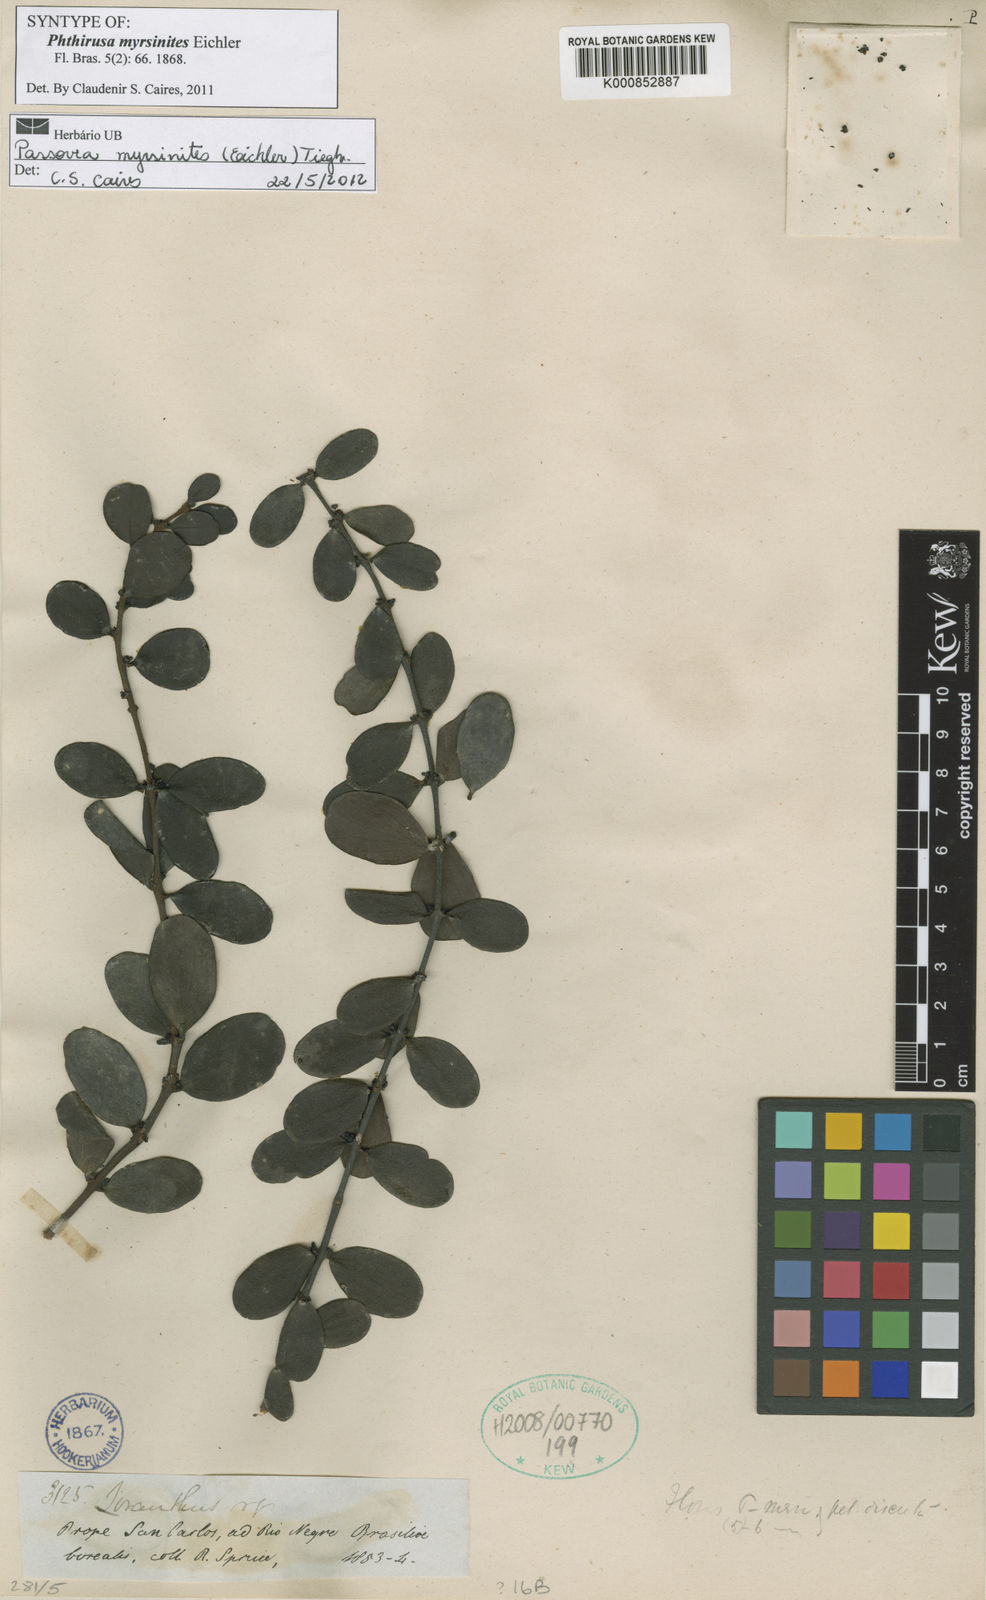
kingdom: Plantae
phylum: Tracheophyta
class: Magnoliopsida
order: Santalales
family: Loranthaceae
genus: Oryctina
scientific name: Oryctina myrsinites
